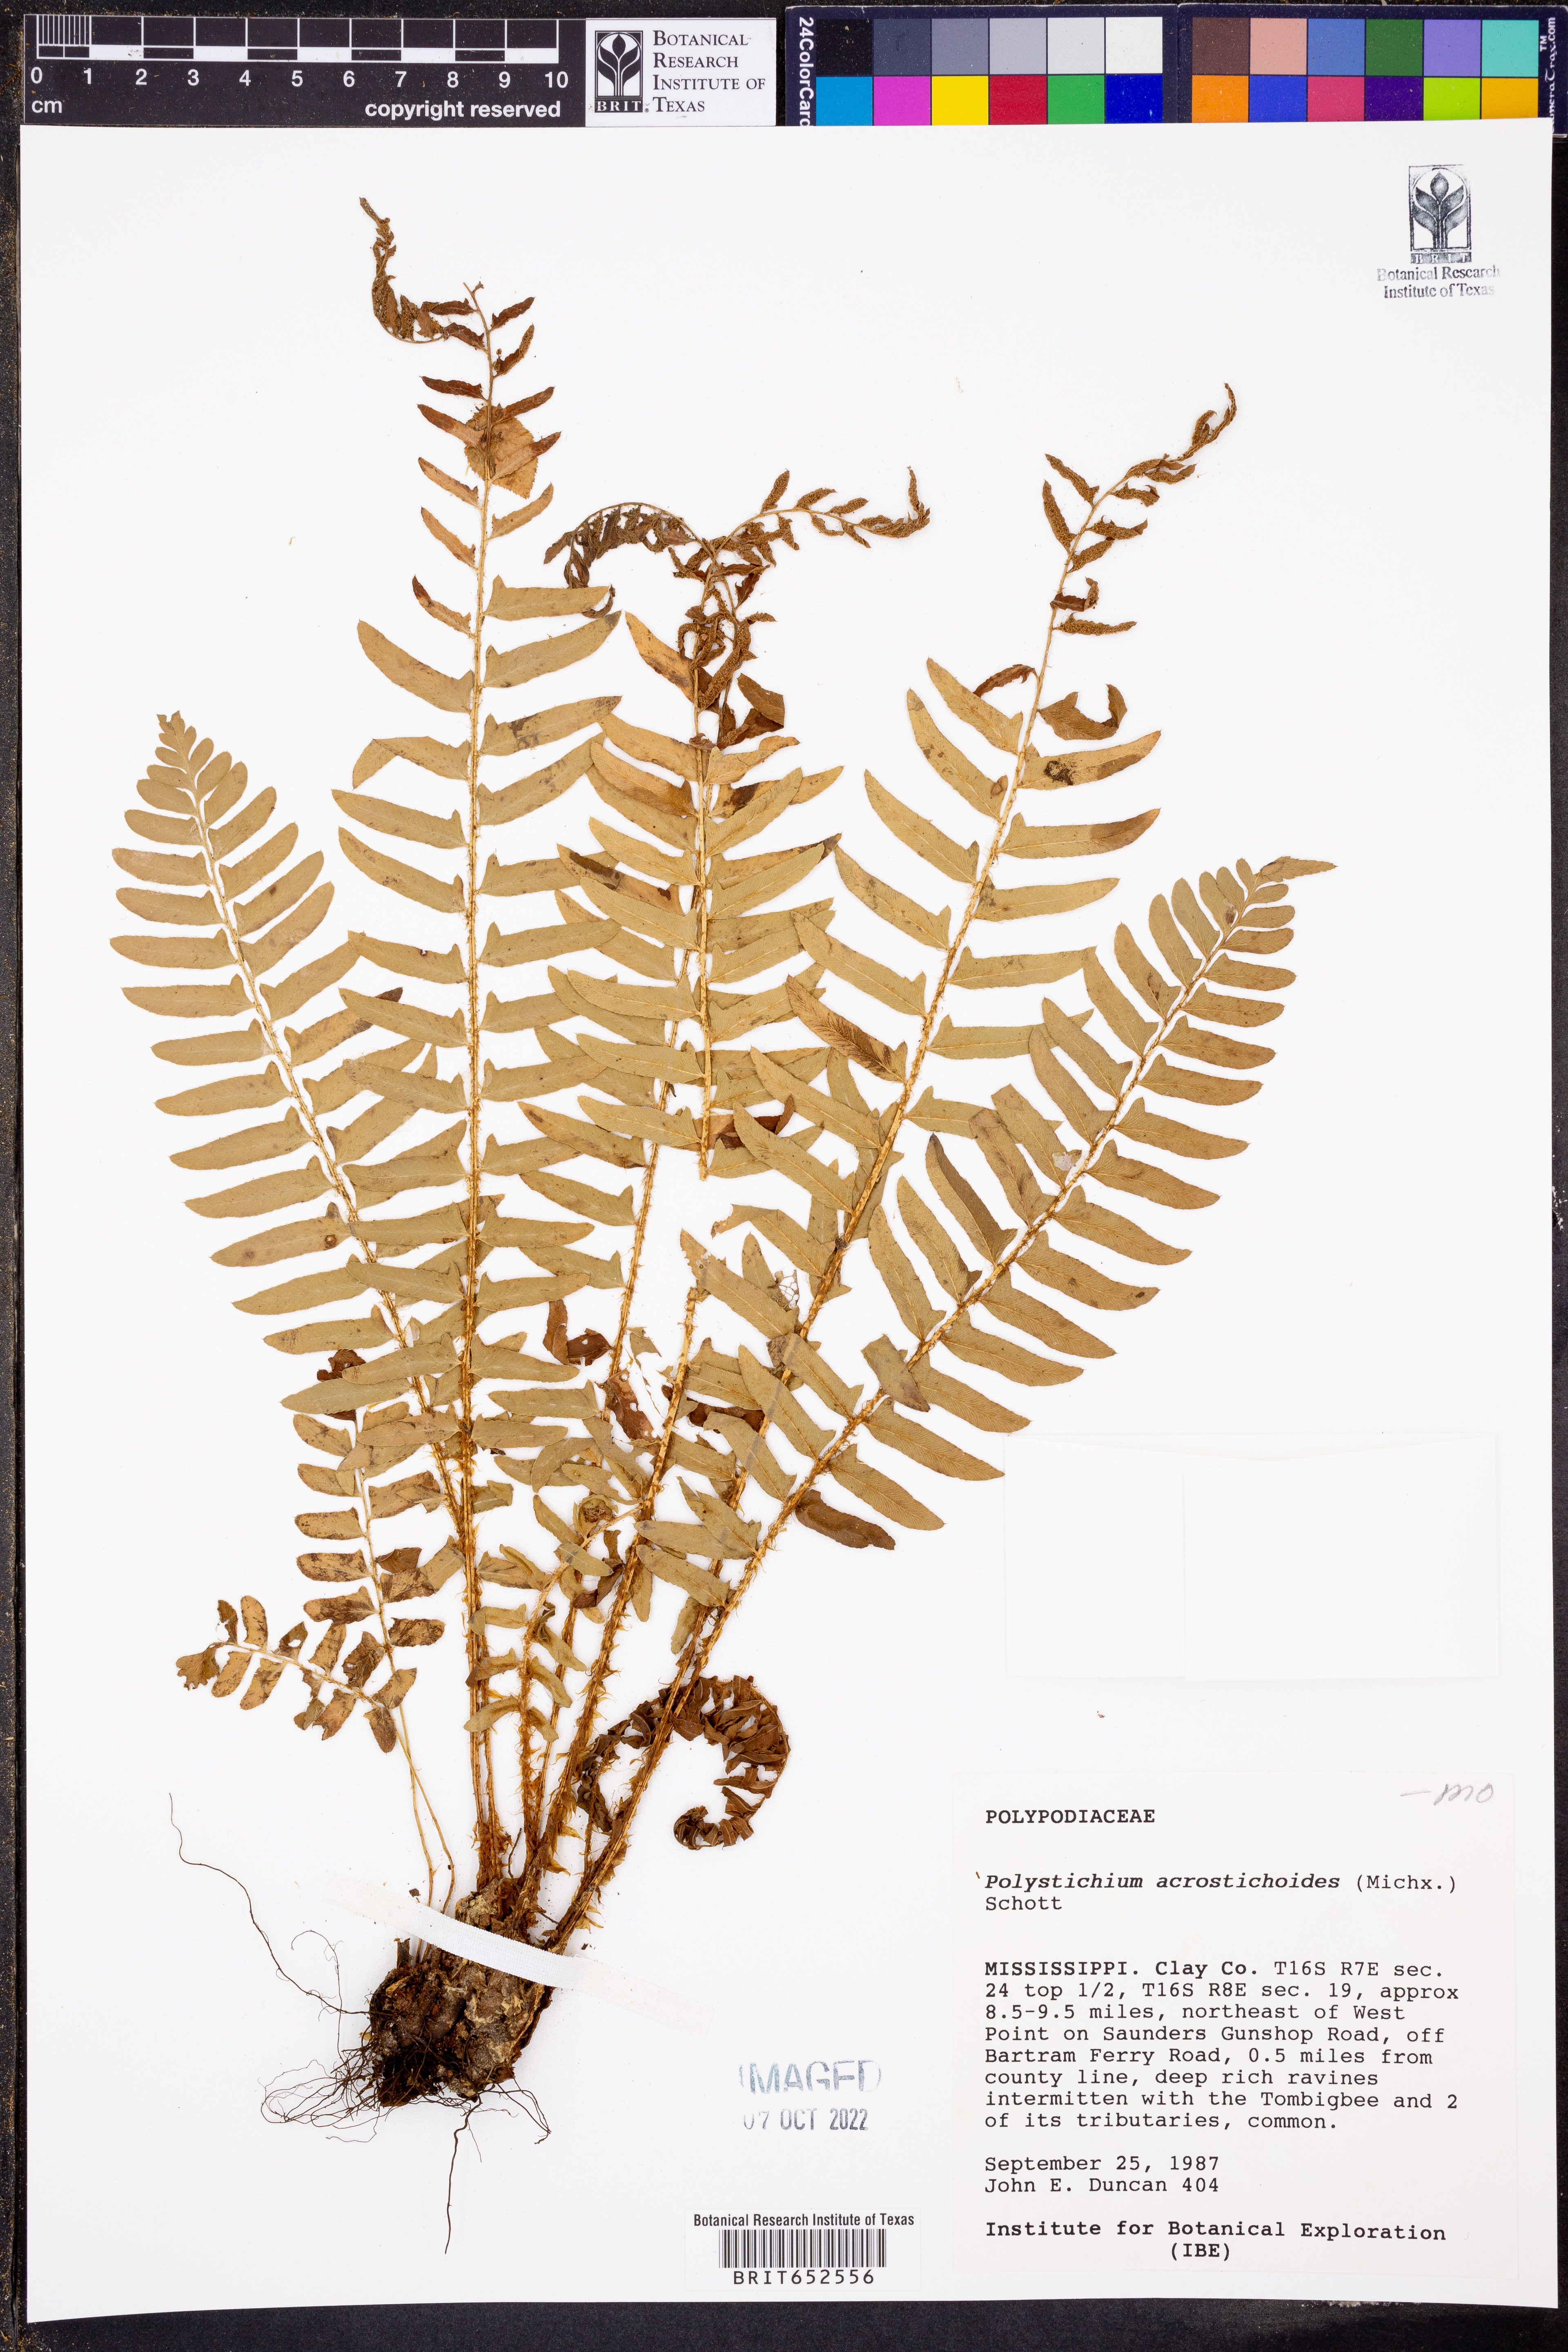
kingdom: Plantae
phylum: Tracheophyta
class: Polypodiopsida
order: Polypodiales
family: Dryopteridaceae
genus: Polystichum
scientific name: Polystichum acrostichoides
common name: Christmas fern
